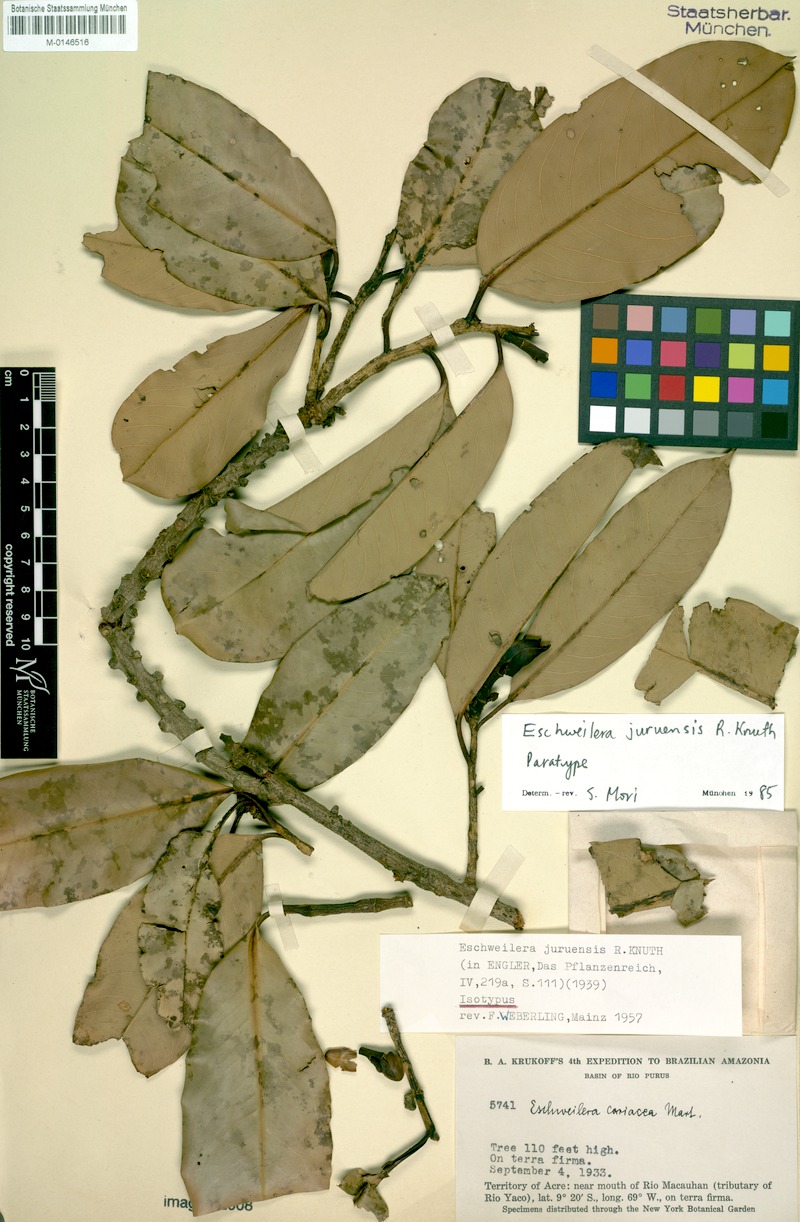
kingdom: Plantae
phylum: Tracheophyta
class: Magnoliopsida
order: Ericales
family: Lecythidaceae
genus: Eschweilera
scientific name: Eschweilera juruensis
